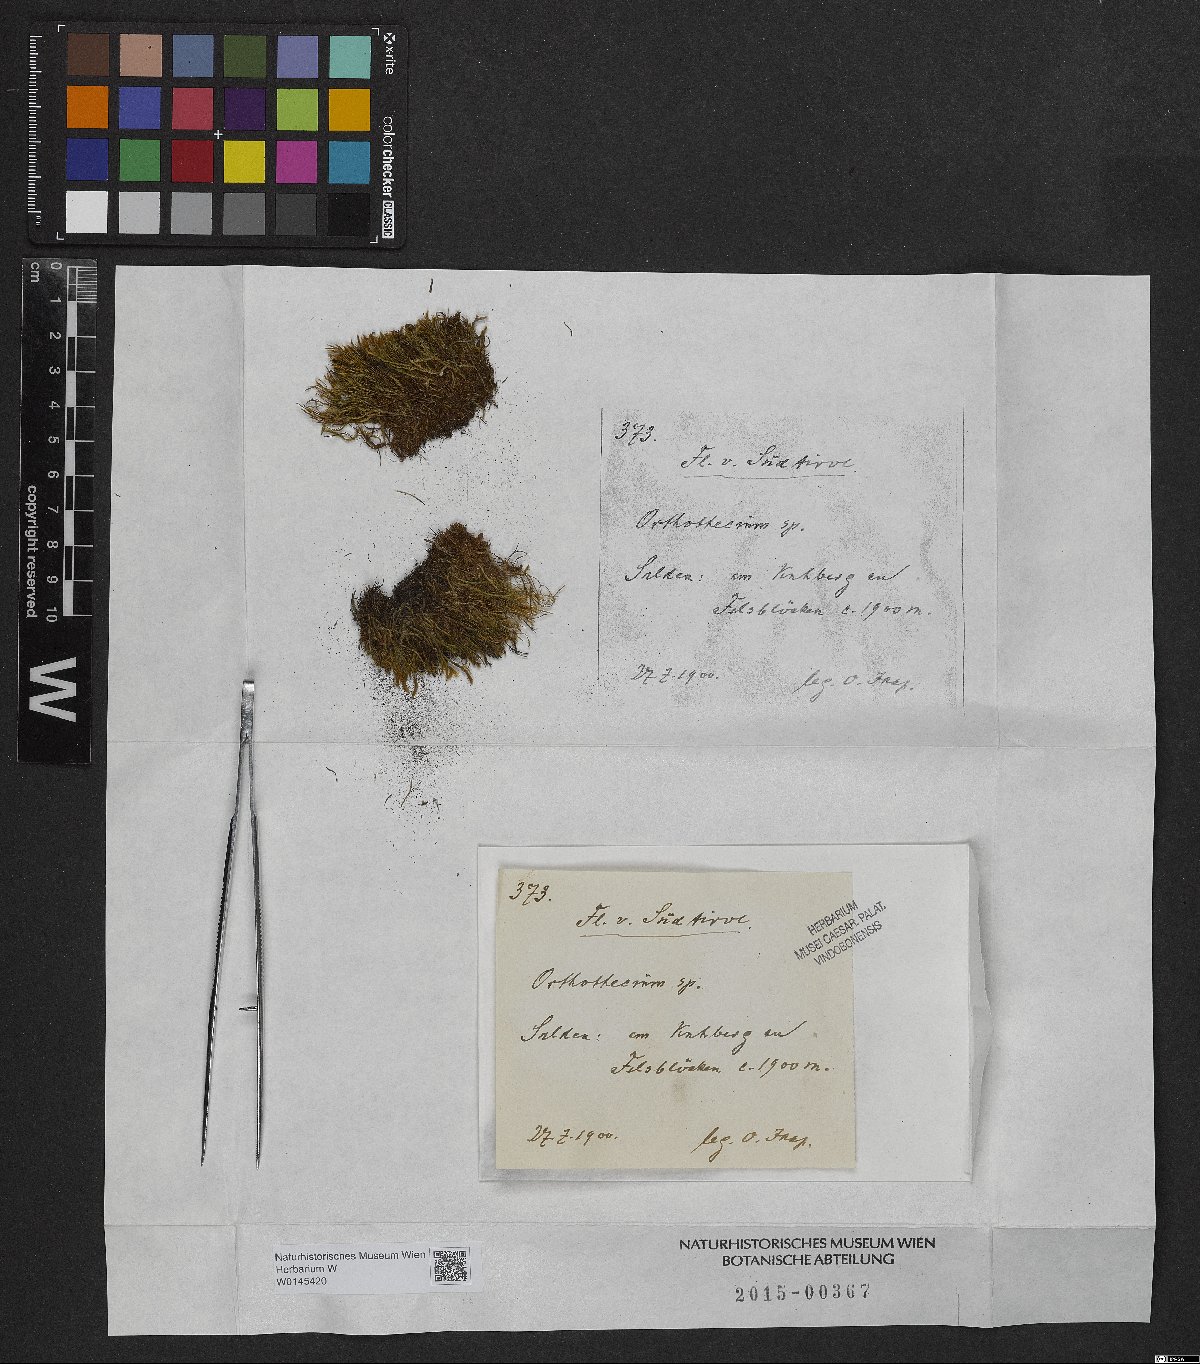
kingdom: Plantae
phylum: Bryophyta
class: Bryopsida
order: Hypnales
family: Plagiotheciaceae
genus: Orthothecium
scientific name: Orthothecium
